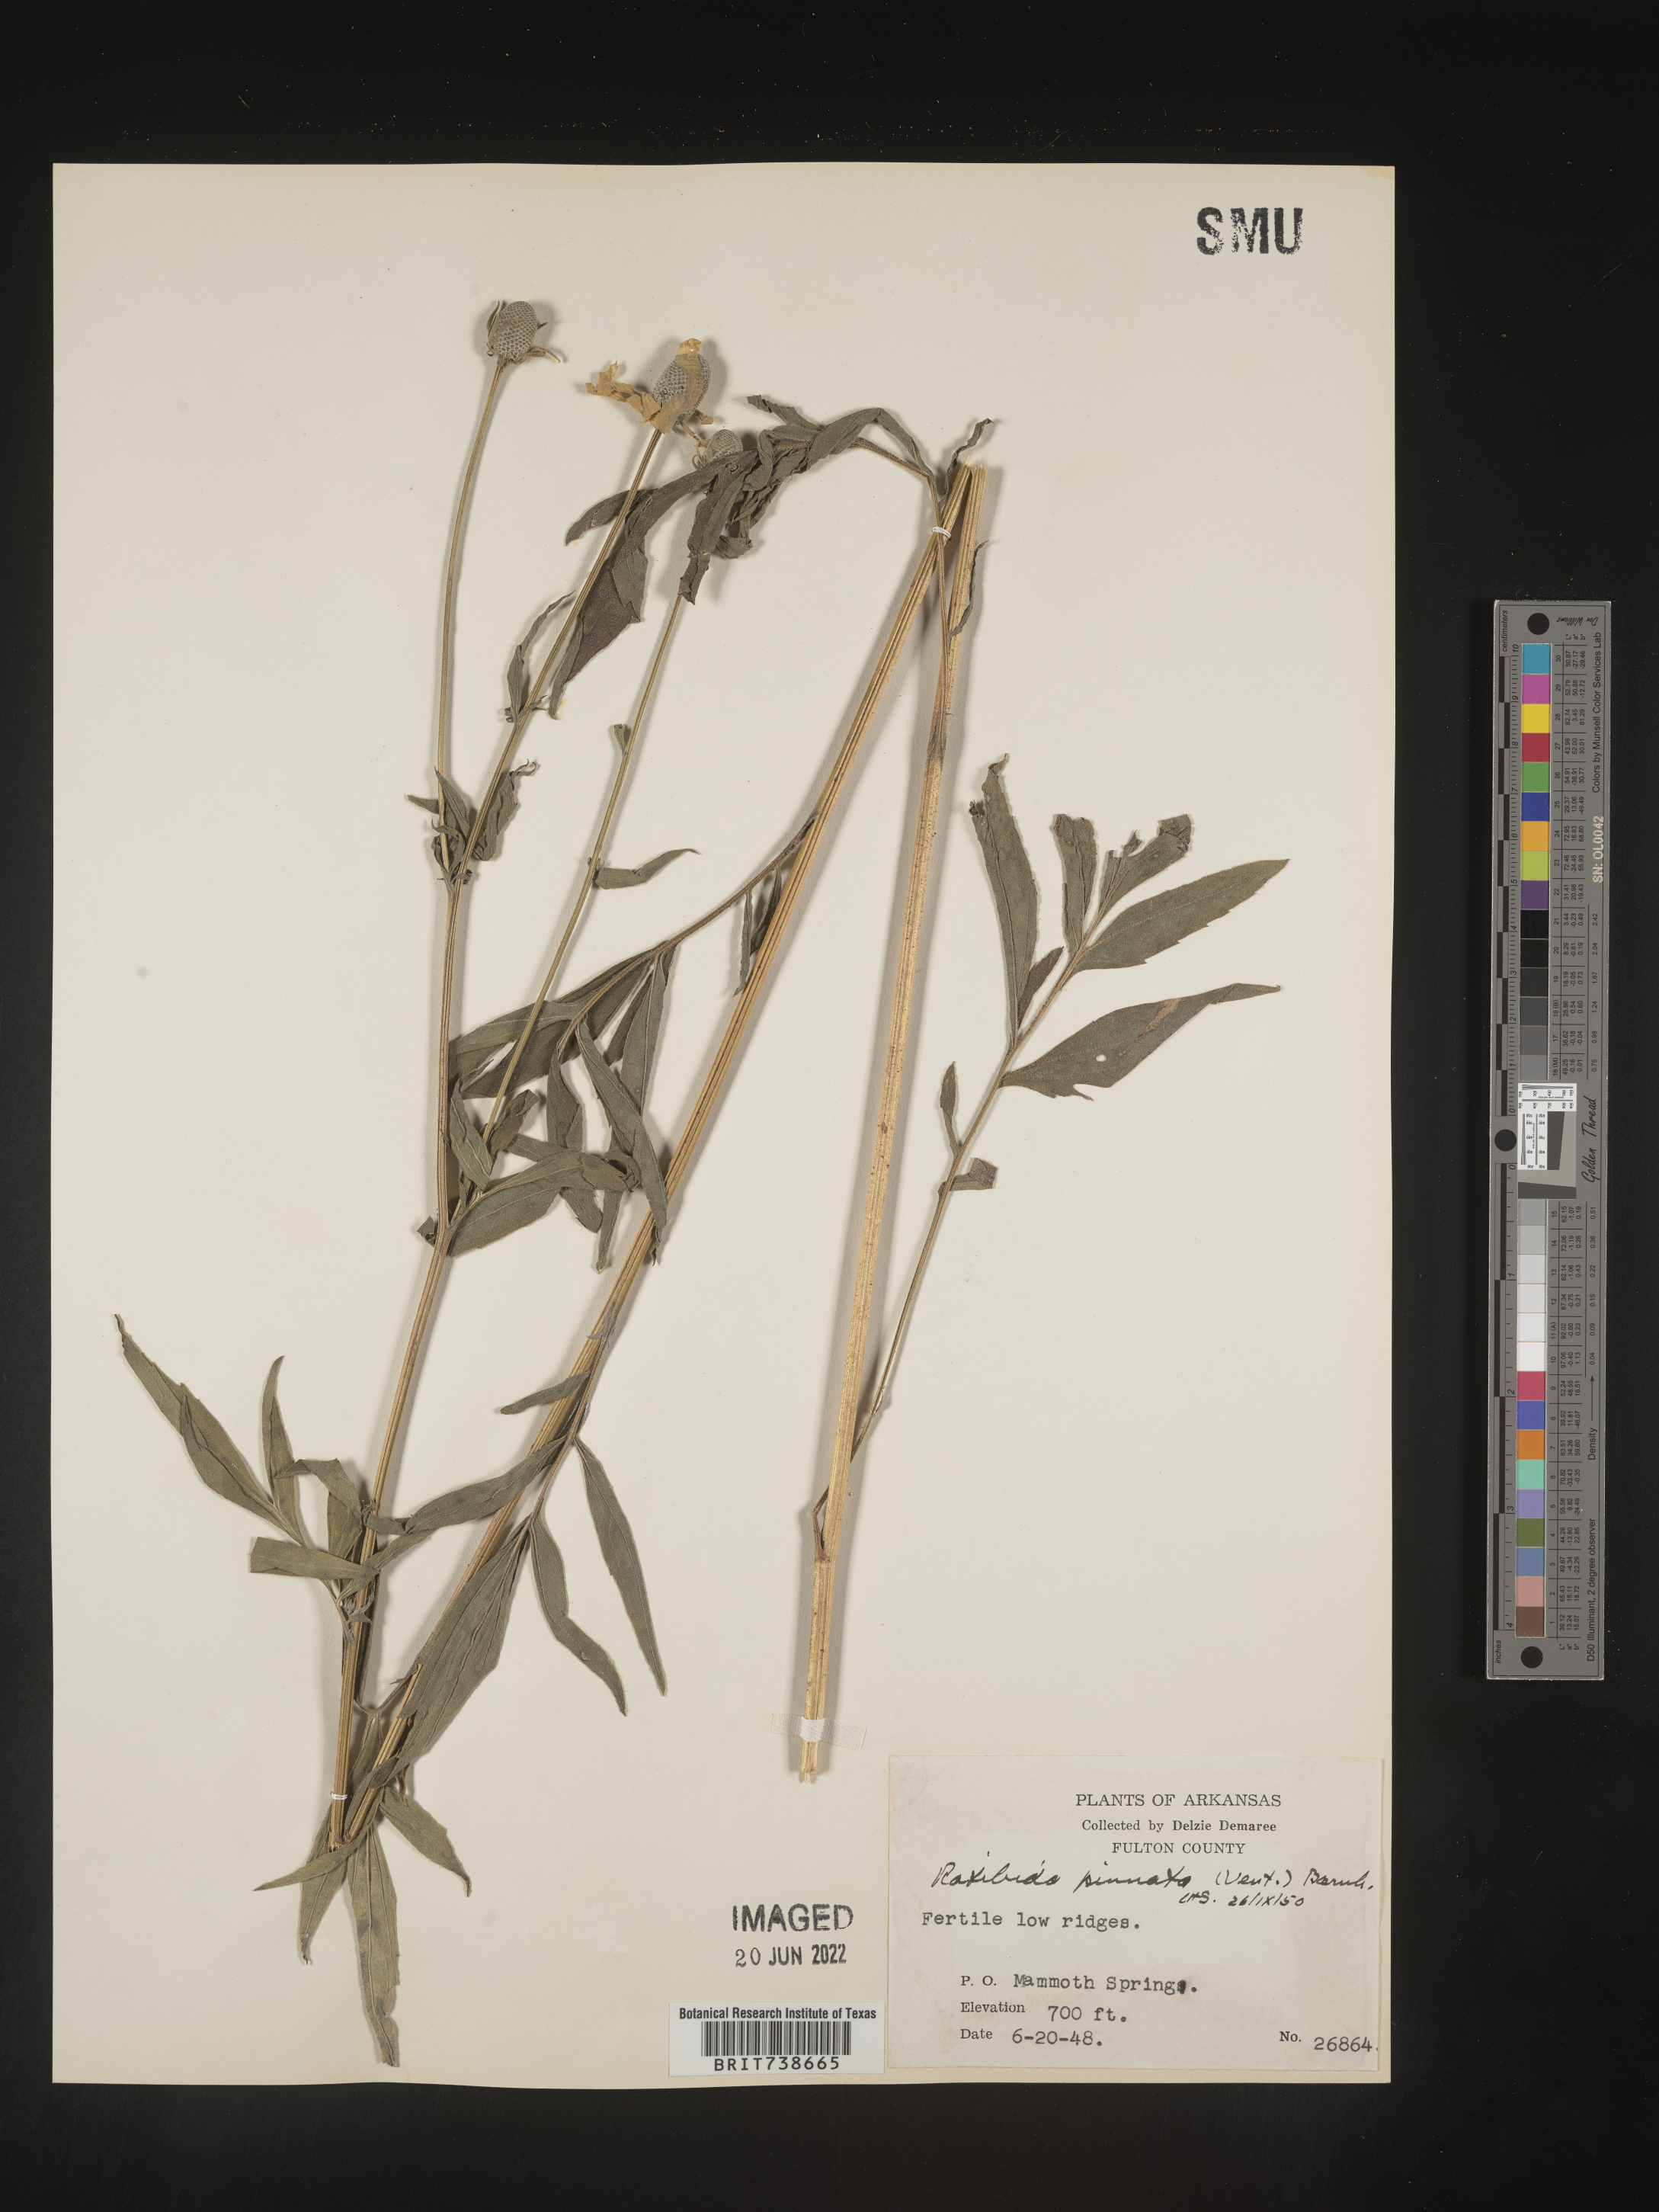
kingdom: Plantae
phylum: Tracheophyta
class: Magnoliopsida
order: Asterales
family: Asteraceae
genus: Ratibida
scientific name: Ratibida pinnata
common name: Drooping prairie-coneflower
